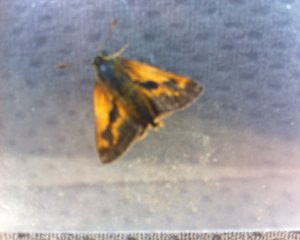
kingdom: Animalia
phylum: Arthropoda
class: Insecta
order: Lepidoptera
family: Hesperiidae
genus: Polites
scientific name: Polites
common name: Long Dash Skipper
